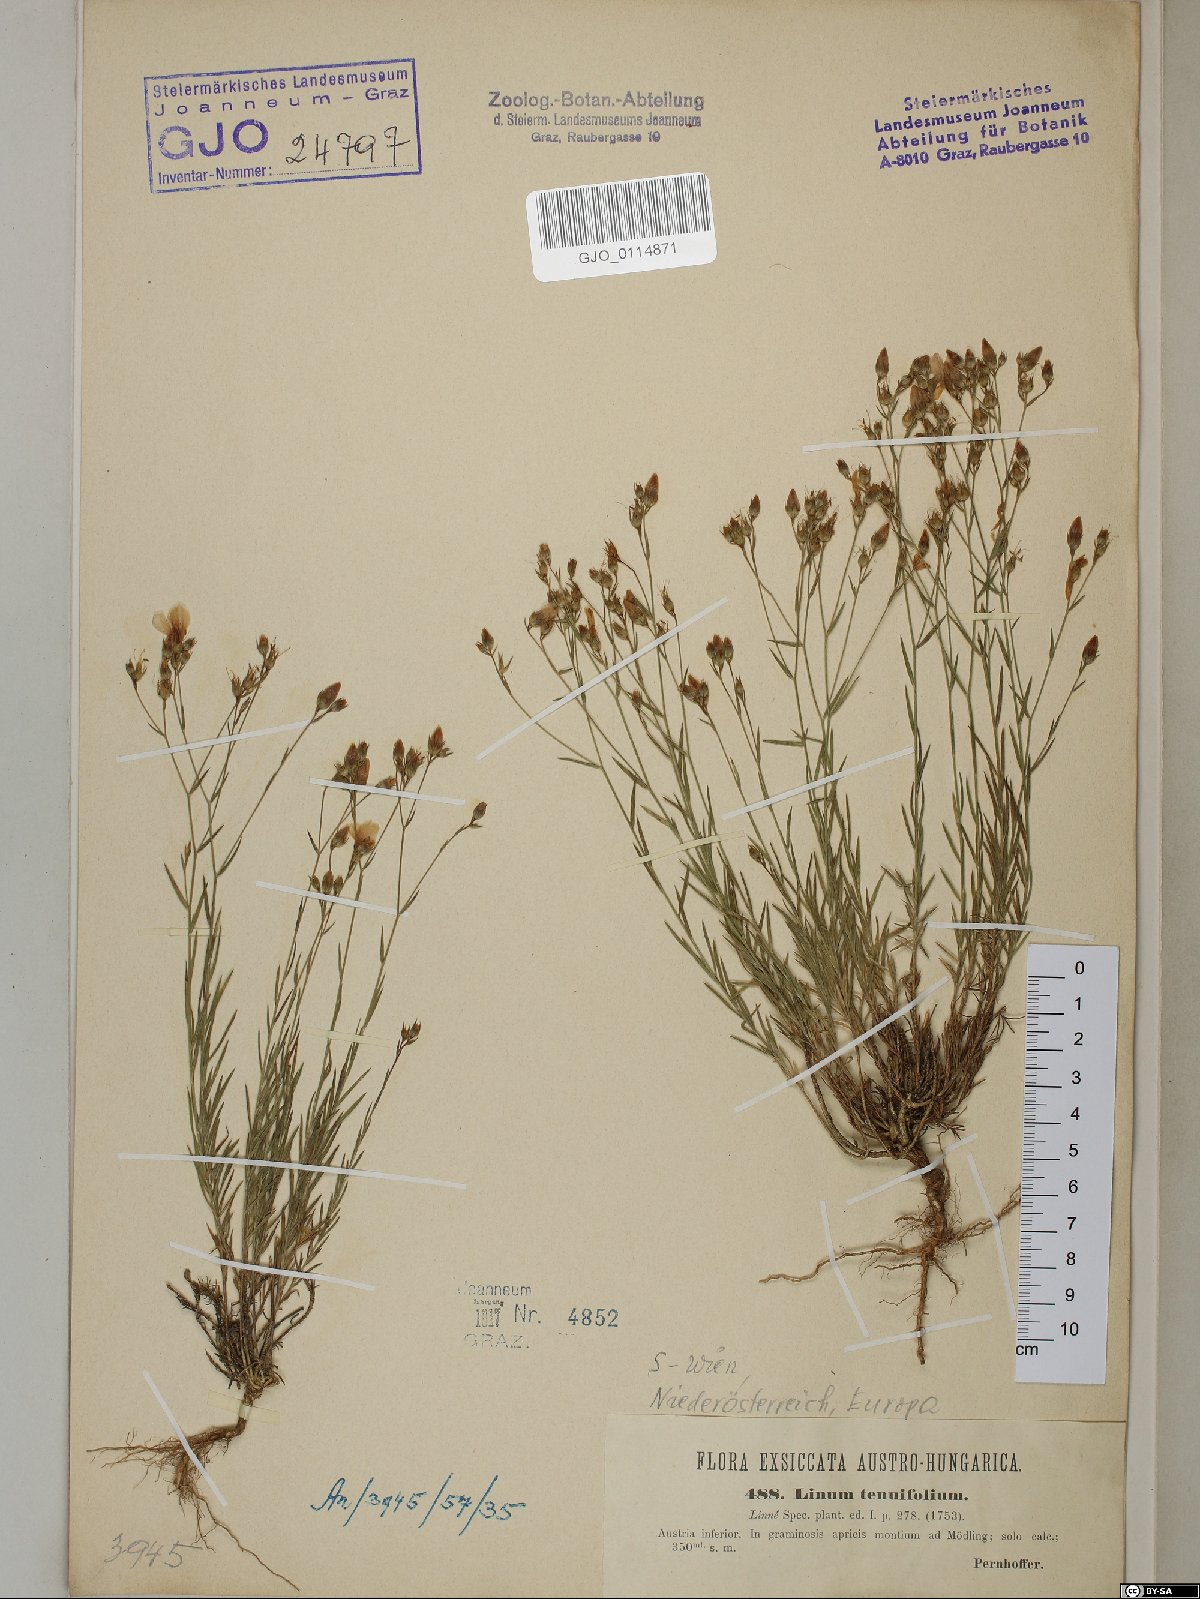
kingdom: Plantae
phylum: Tracheophyta
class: Magnoliopsida
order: Malpighiales
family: Linaceae
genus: Linum
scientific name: Linum tenuifolium
